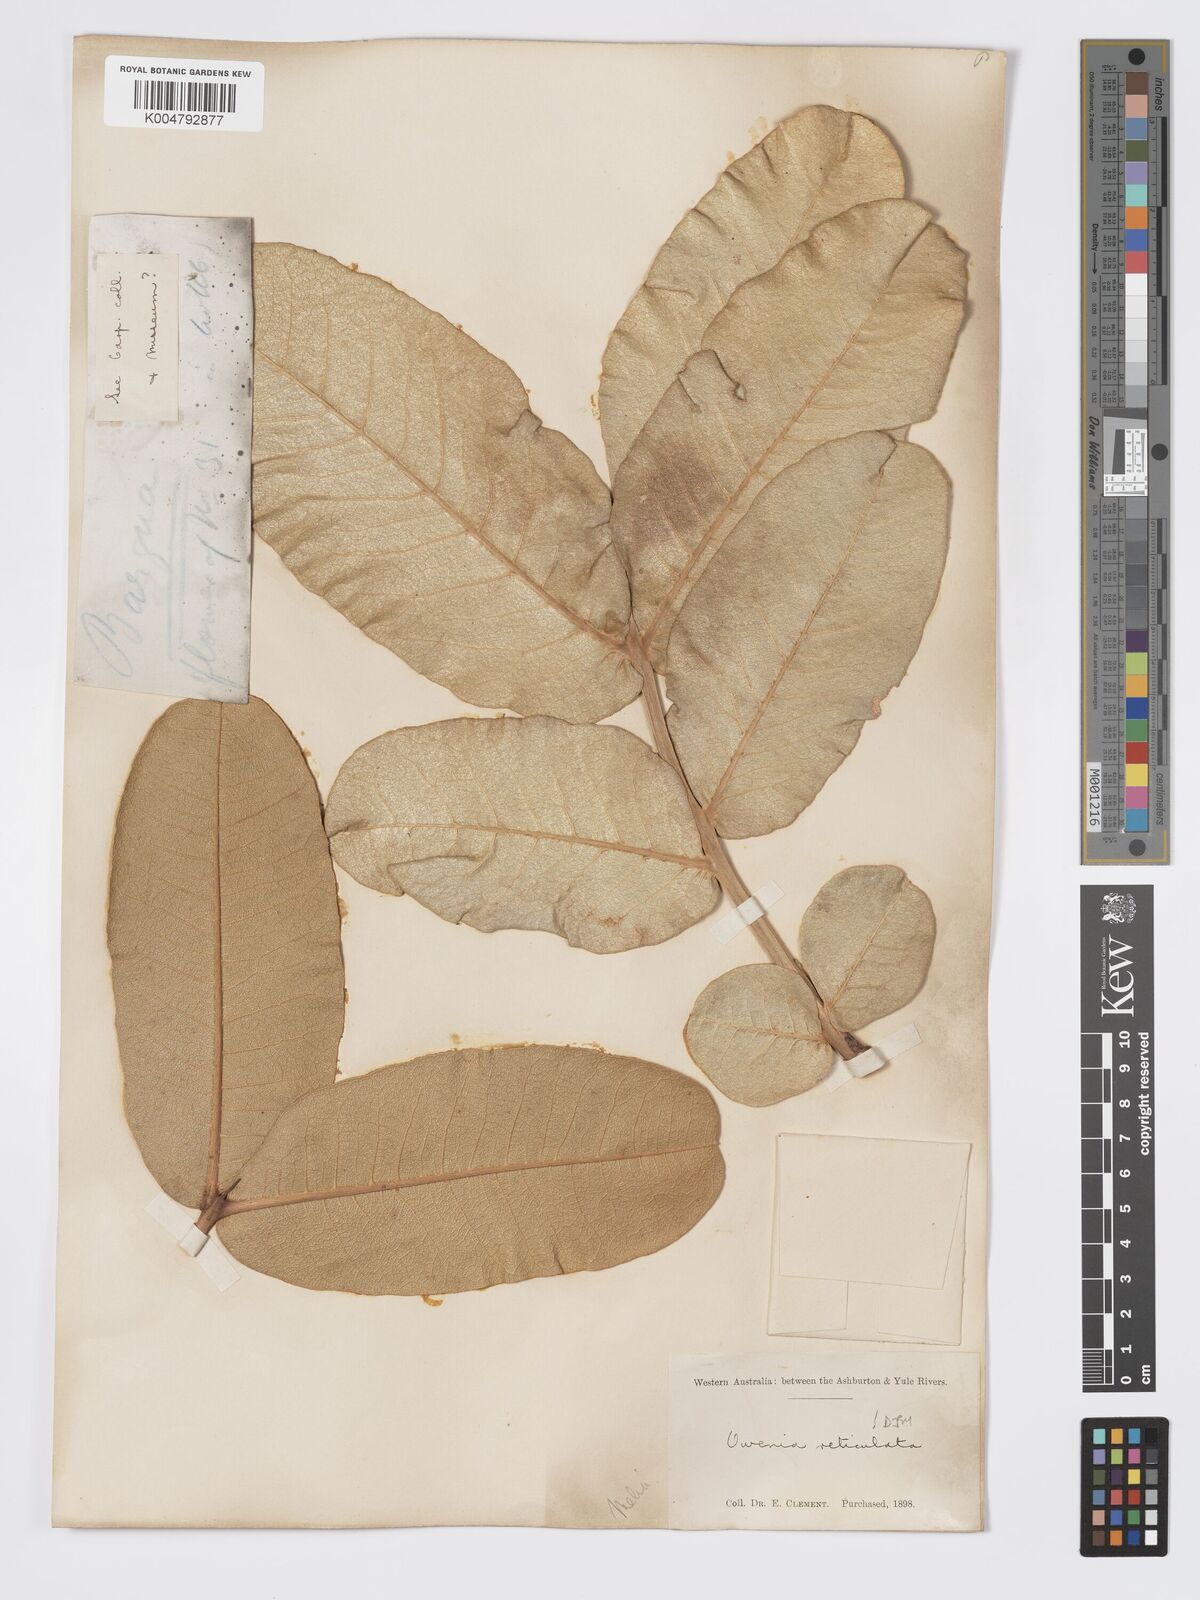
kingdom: Plantae
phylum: Tracheophyta
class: Magnoliopsida
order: Sapindales
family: Meliaceae
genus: Owenia
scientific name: Owenia reticulata
